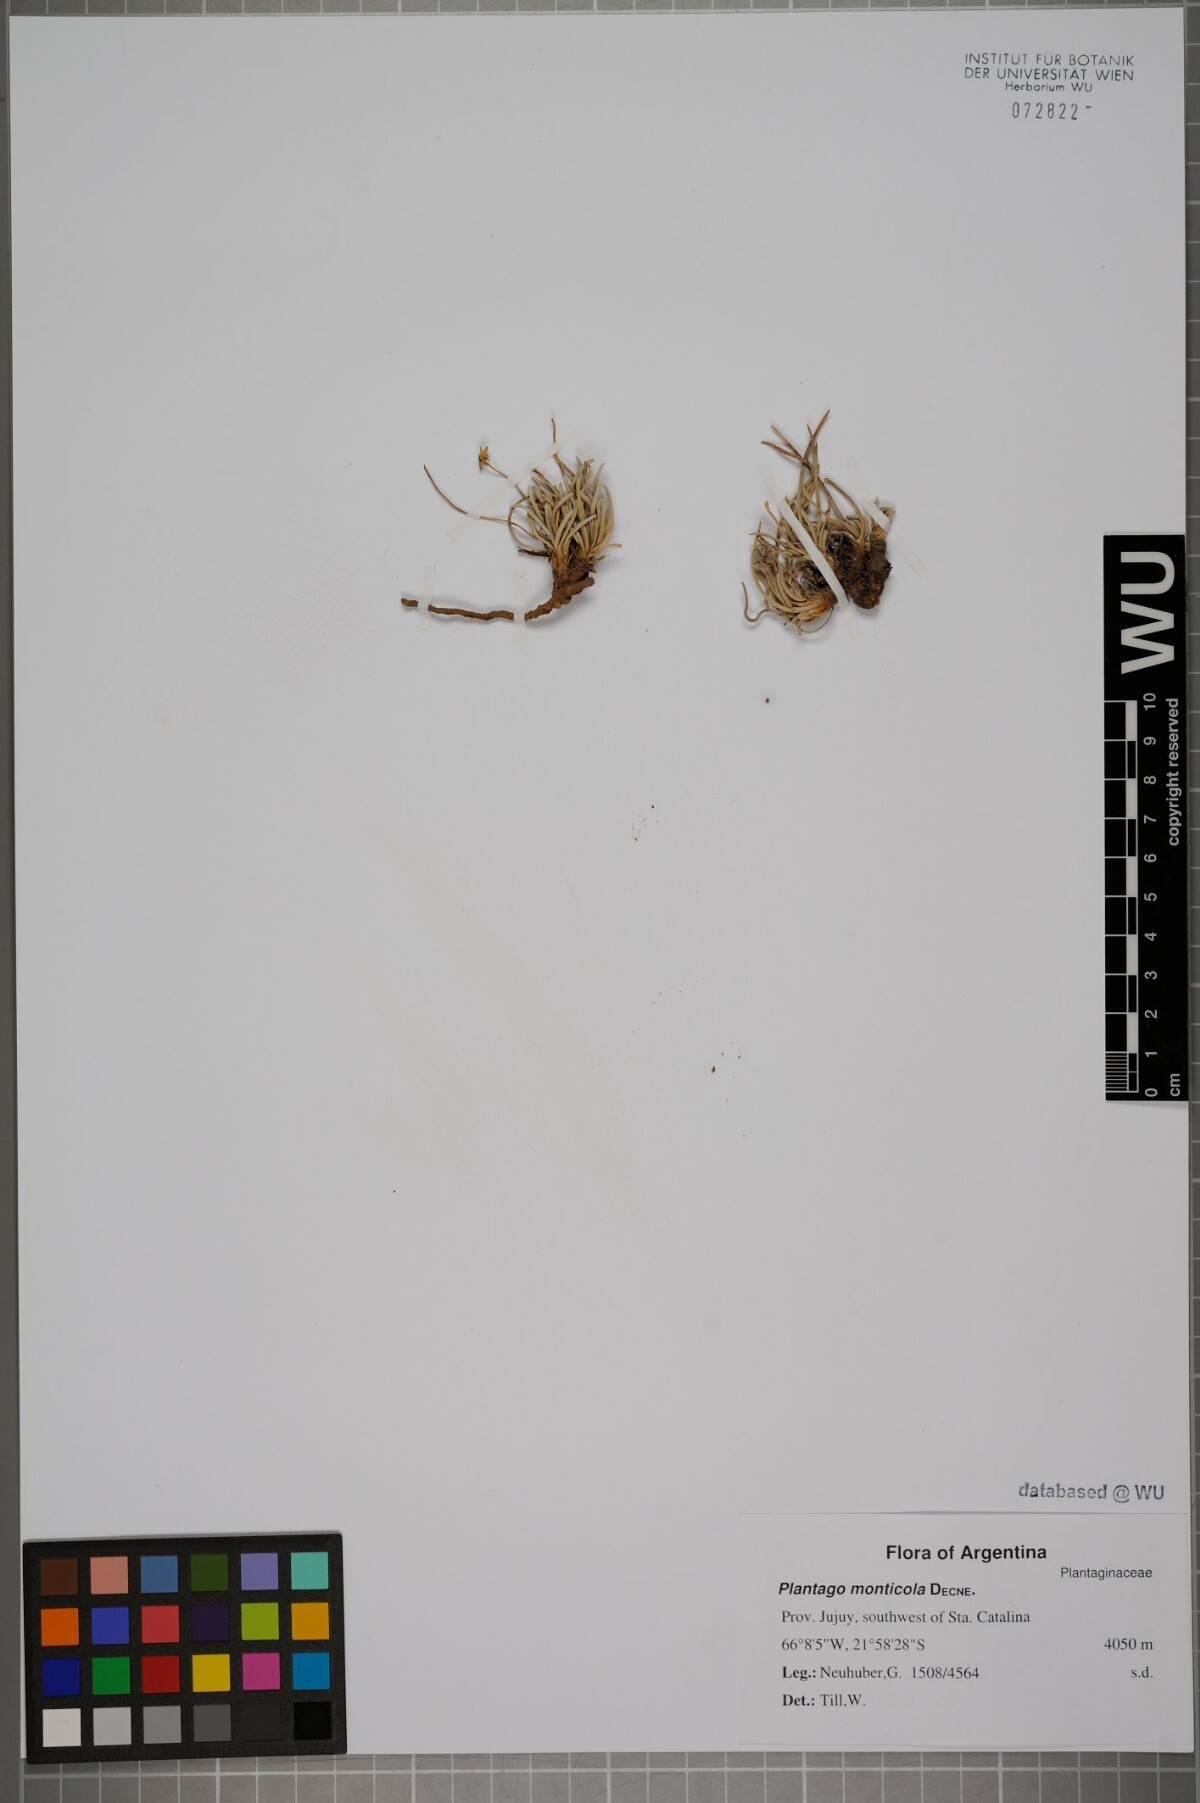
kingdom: Plantae
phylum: Tracheophyta
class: Magnoliopsida
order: Lamiales
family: Plantaginaceae
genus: Plantago
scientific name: Plantago sericea
